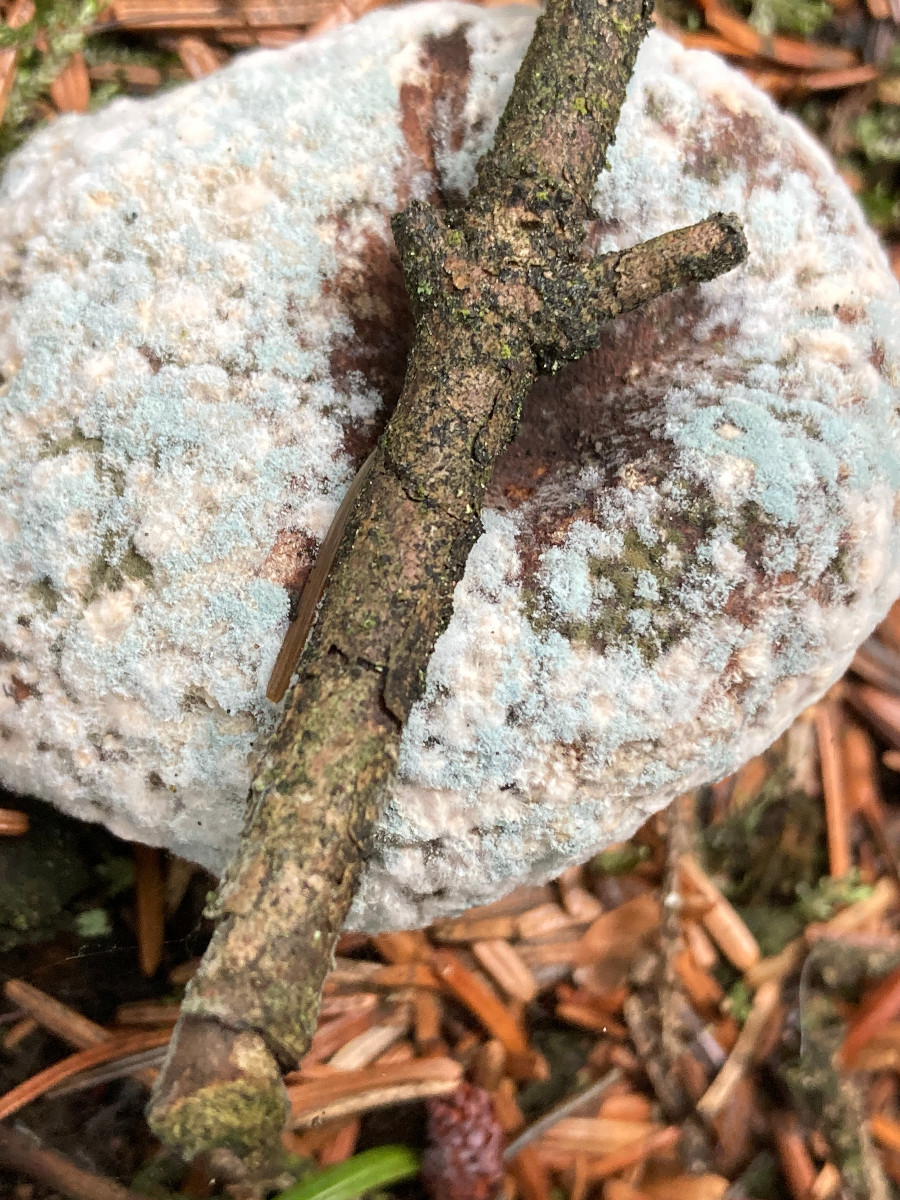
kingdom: Fungi
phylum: Ascomycota
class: Eurotiomycetes
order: Eurotiales
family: Aspergillaceae
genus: Penicillium
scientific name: Penicillium
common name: penselskimmel
